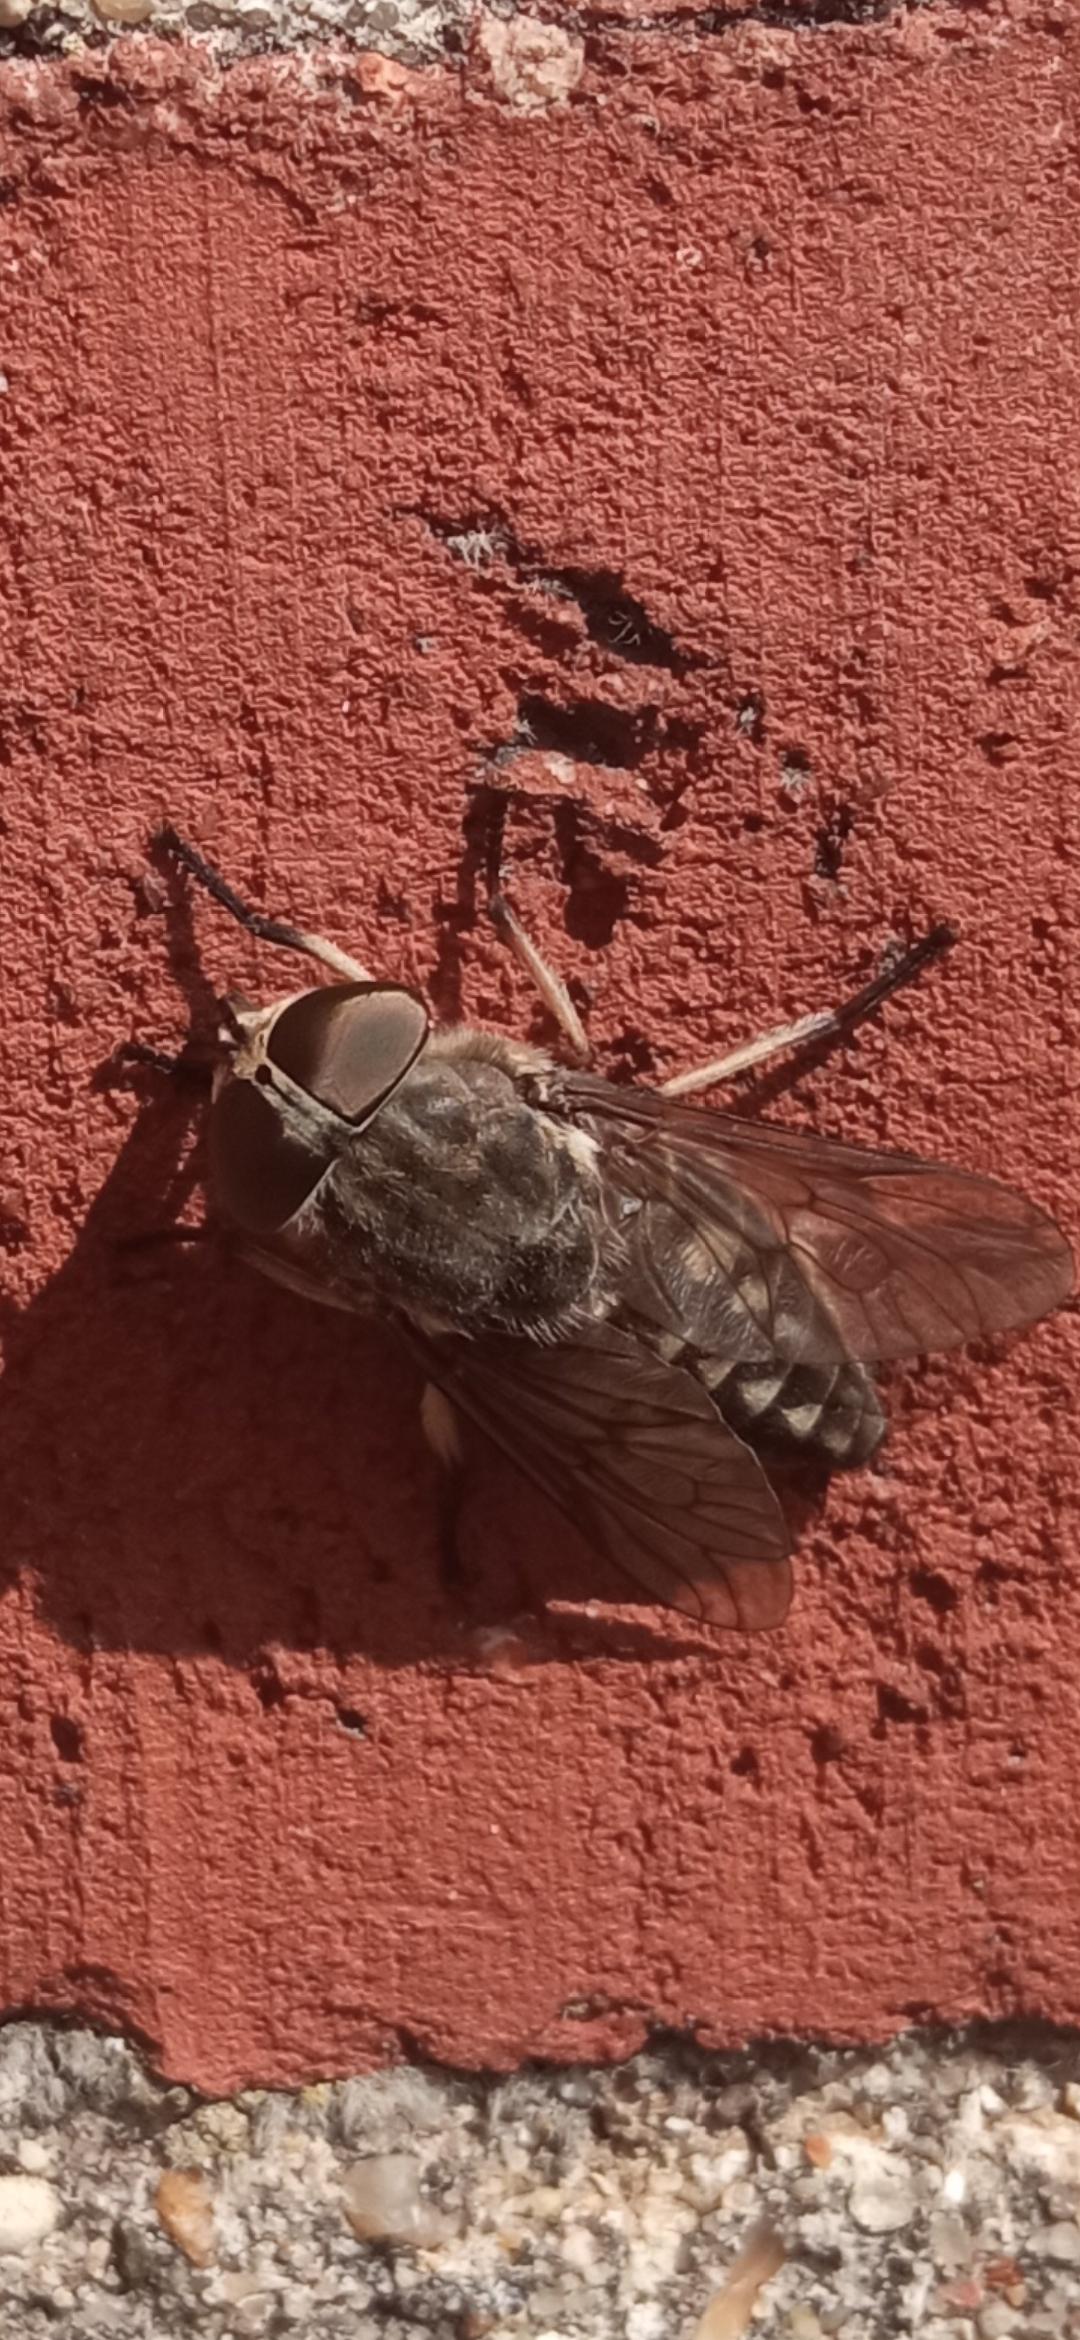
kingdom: Animalia
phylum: Arthropoda
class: Insecta
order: Diptera
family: Tabanidae
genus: Tabanus
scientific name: Tabanus autumnalis
